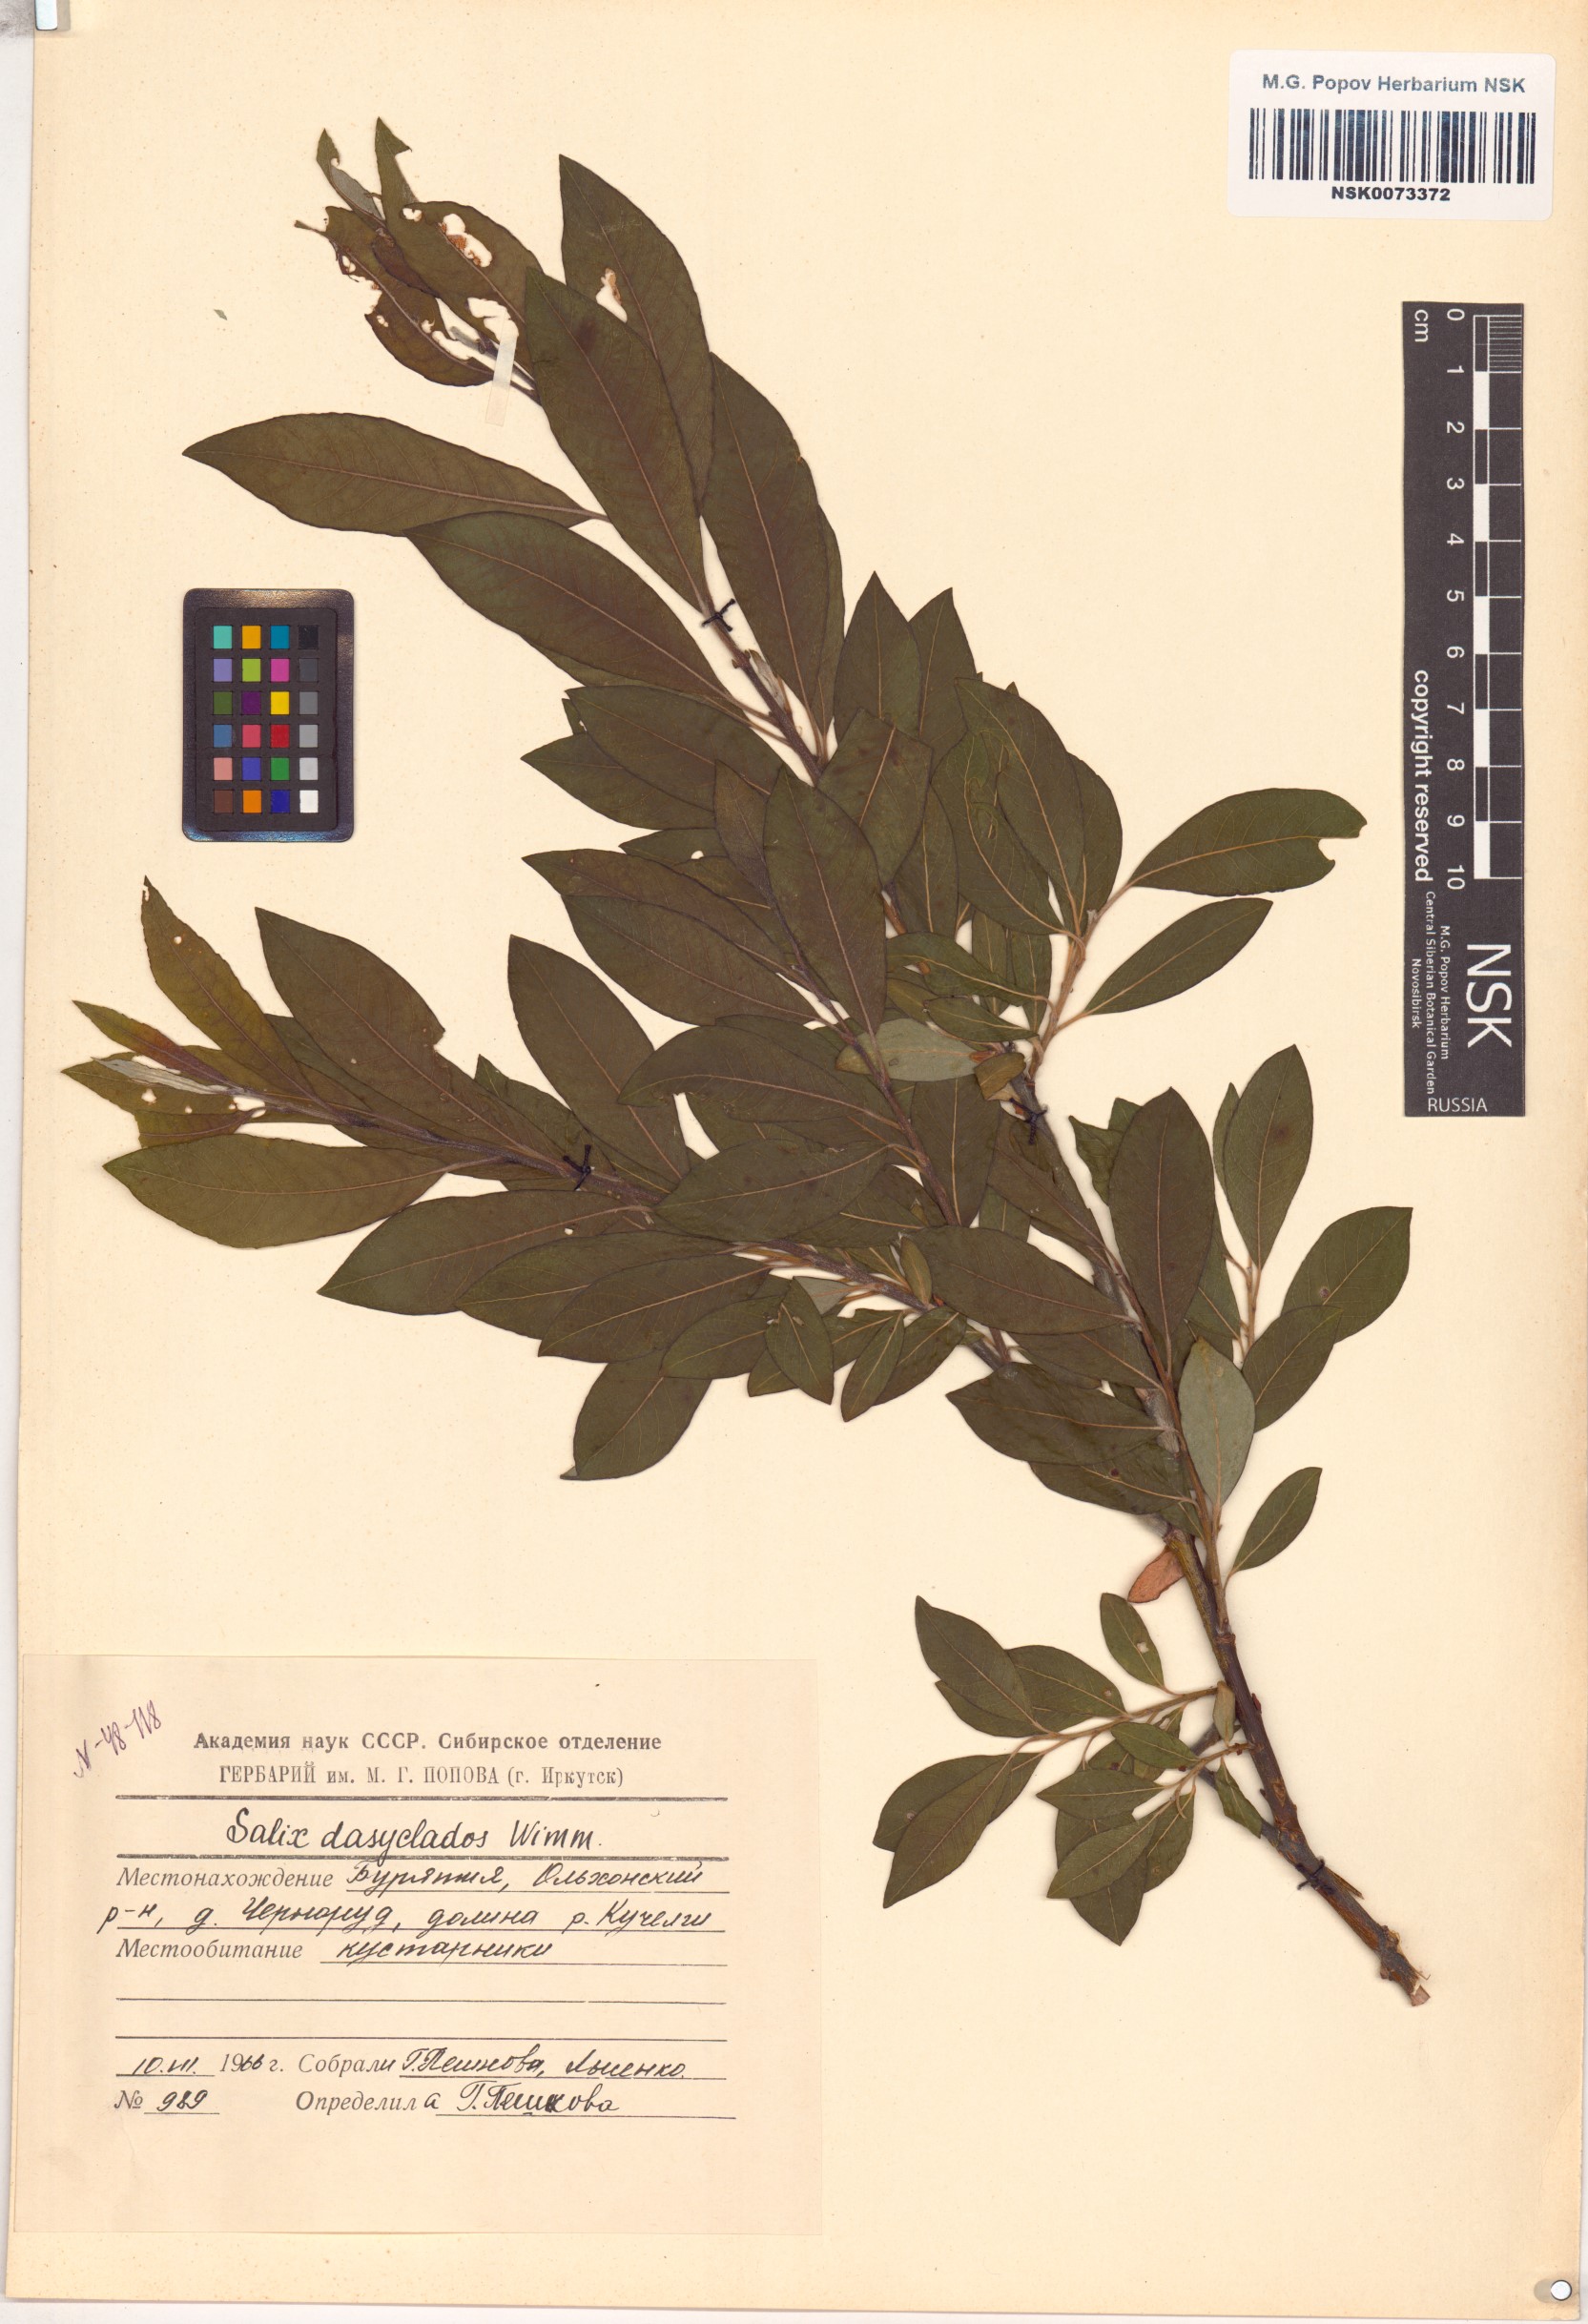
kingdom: Plantae
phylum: Tracheophyta
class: Magnoliopsida
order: Malpighiales
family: Salicaceae
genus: Salix
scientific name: Salix gmelinii
